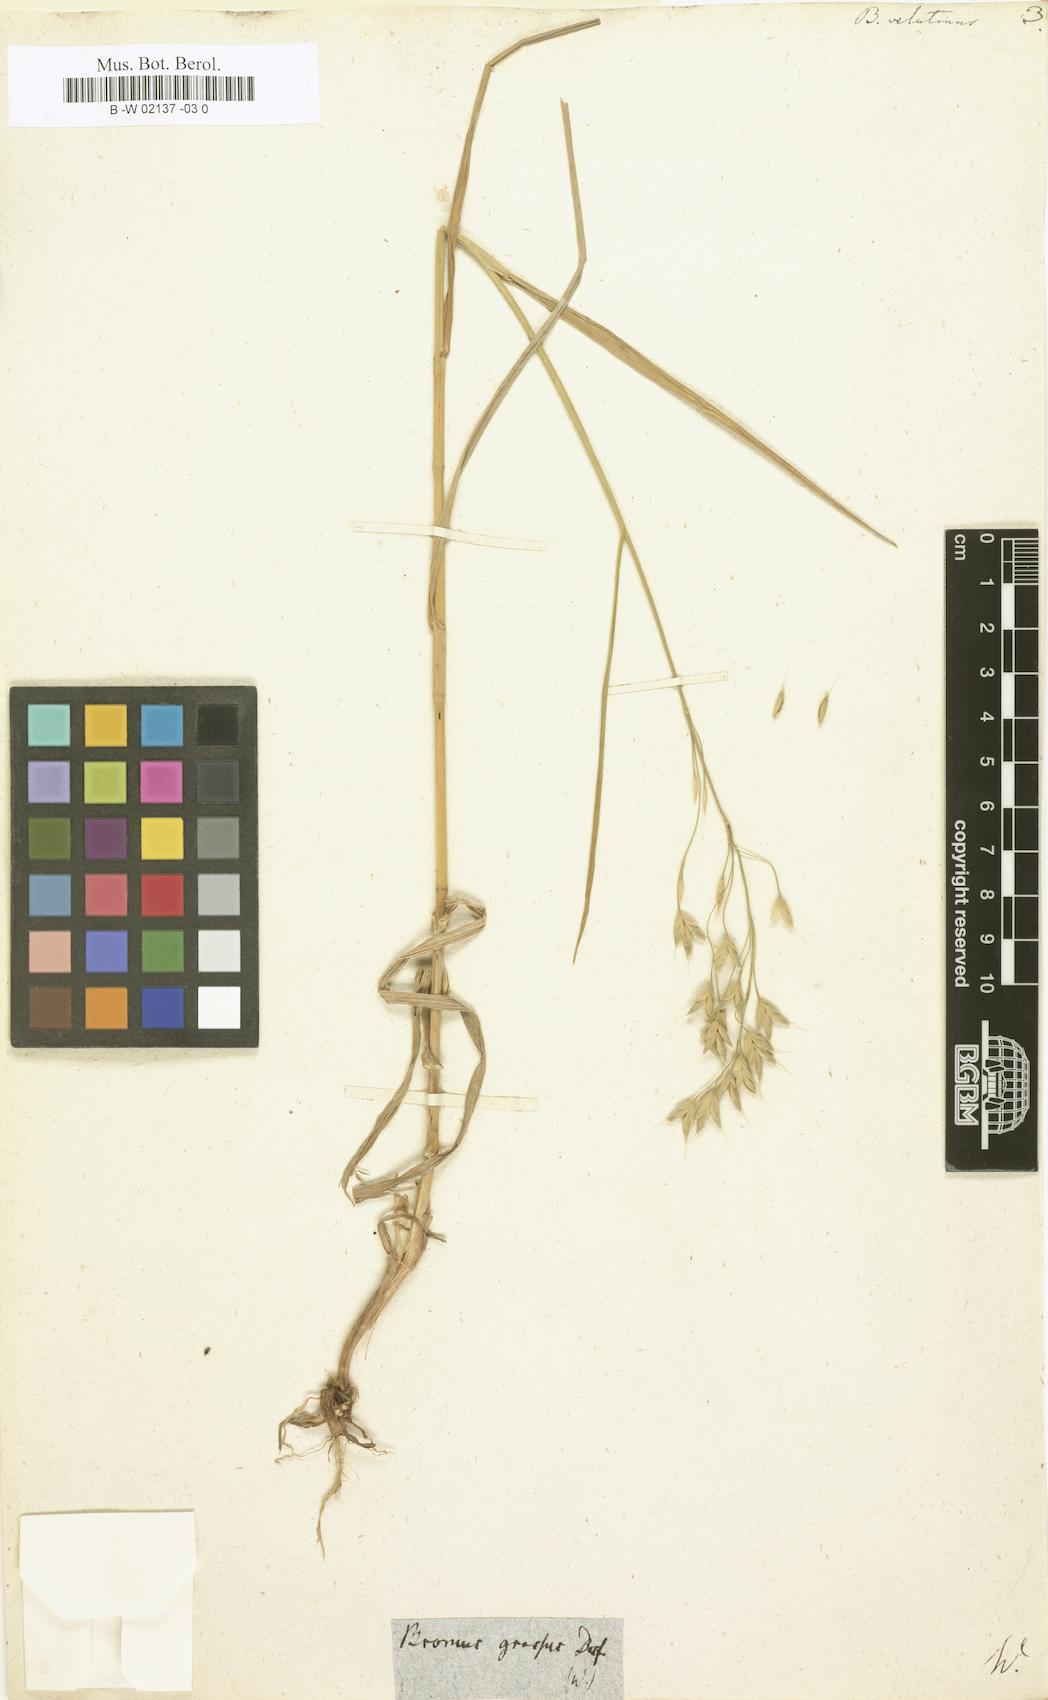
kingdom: Plantae
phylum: Tracheophyta
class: Liliopsida
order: Poales
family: Poaceae
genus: Bromus
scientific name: Bromus grossus
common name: Whiskered brome
